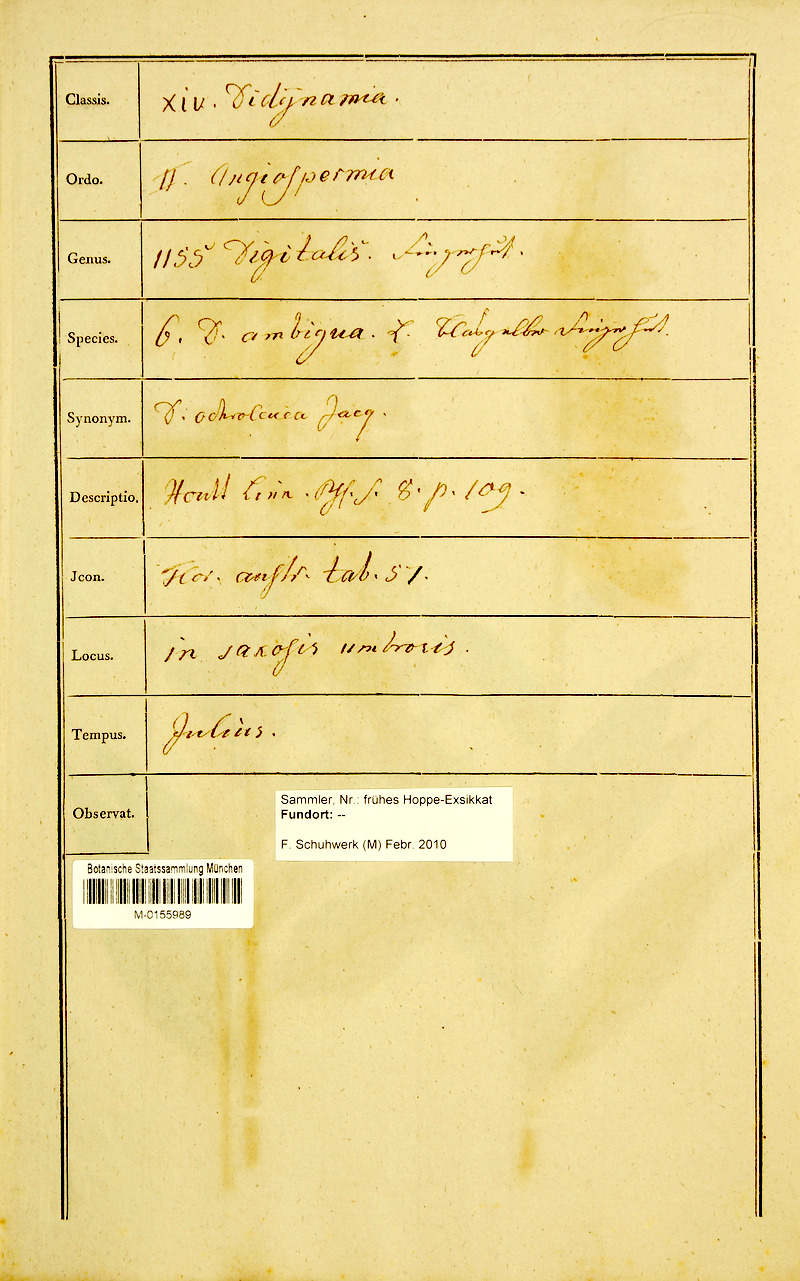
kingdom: Plantae
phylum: Tracheophyta
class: Magnoliopsida
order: Lamiales
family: Plantaginaceae
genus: Digitalis
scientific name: Digitalis grandiflora
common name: Yellow foxglove
